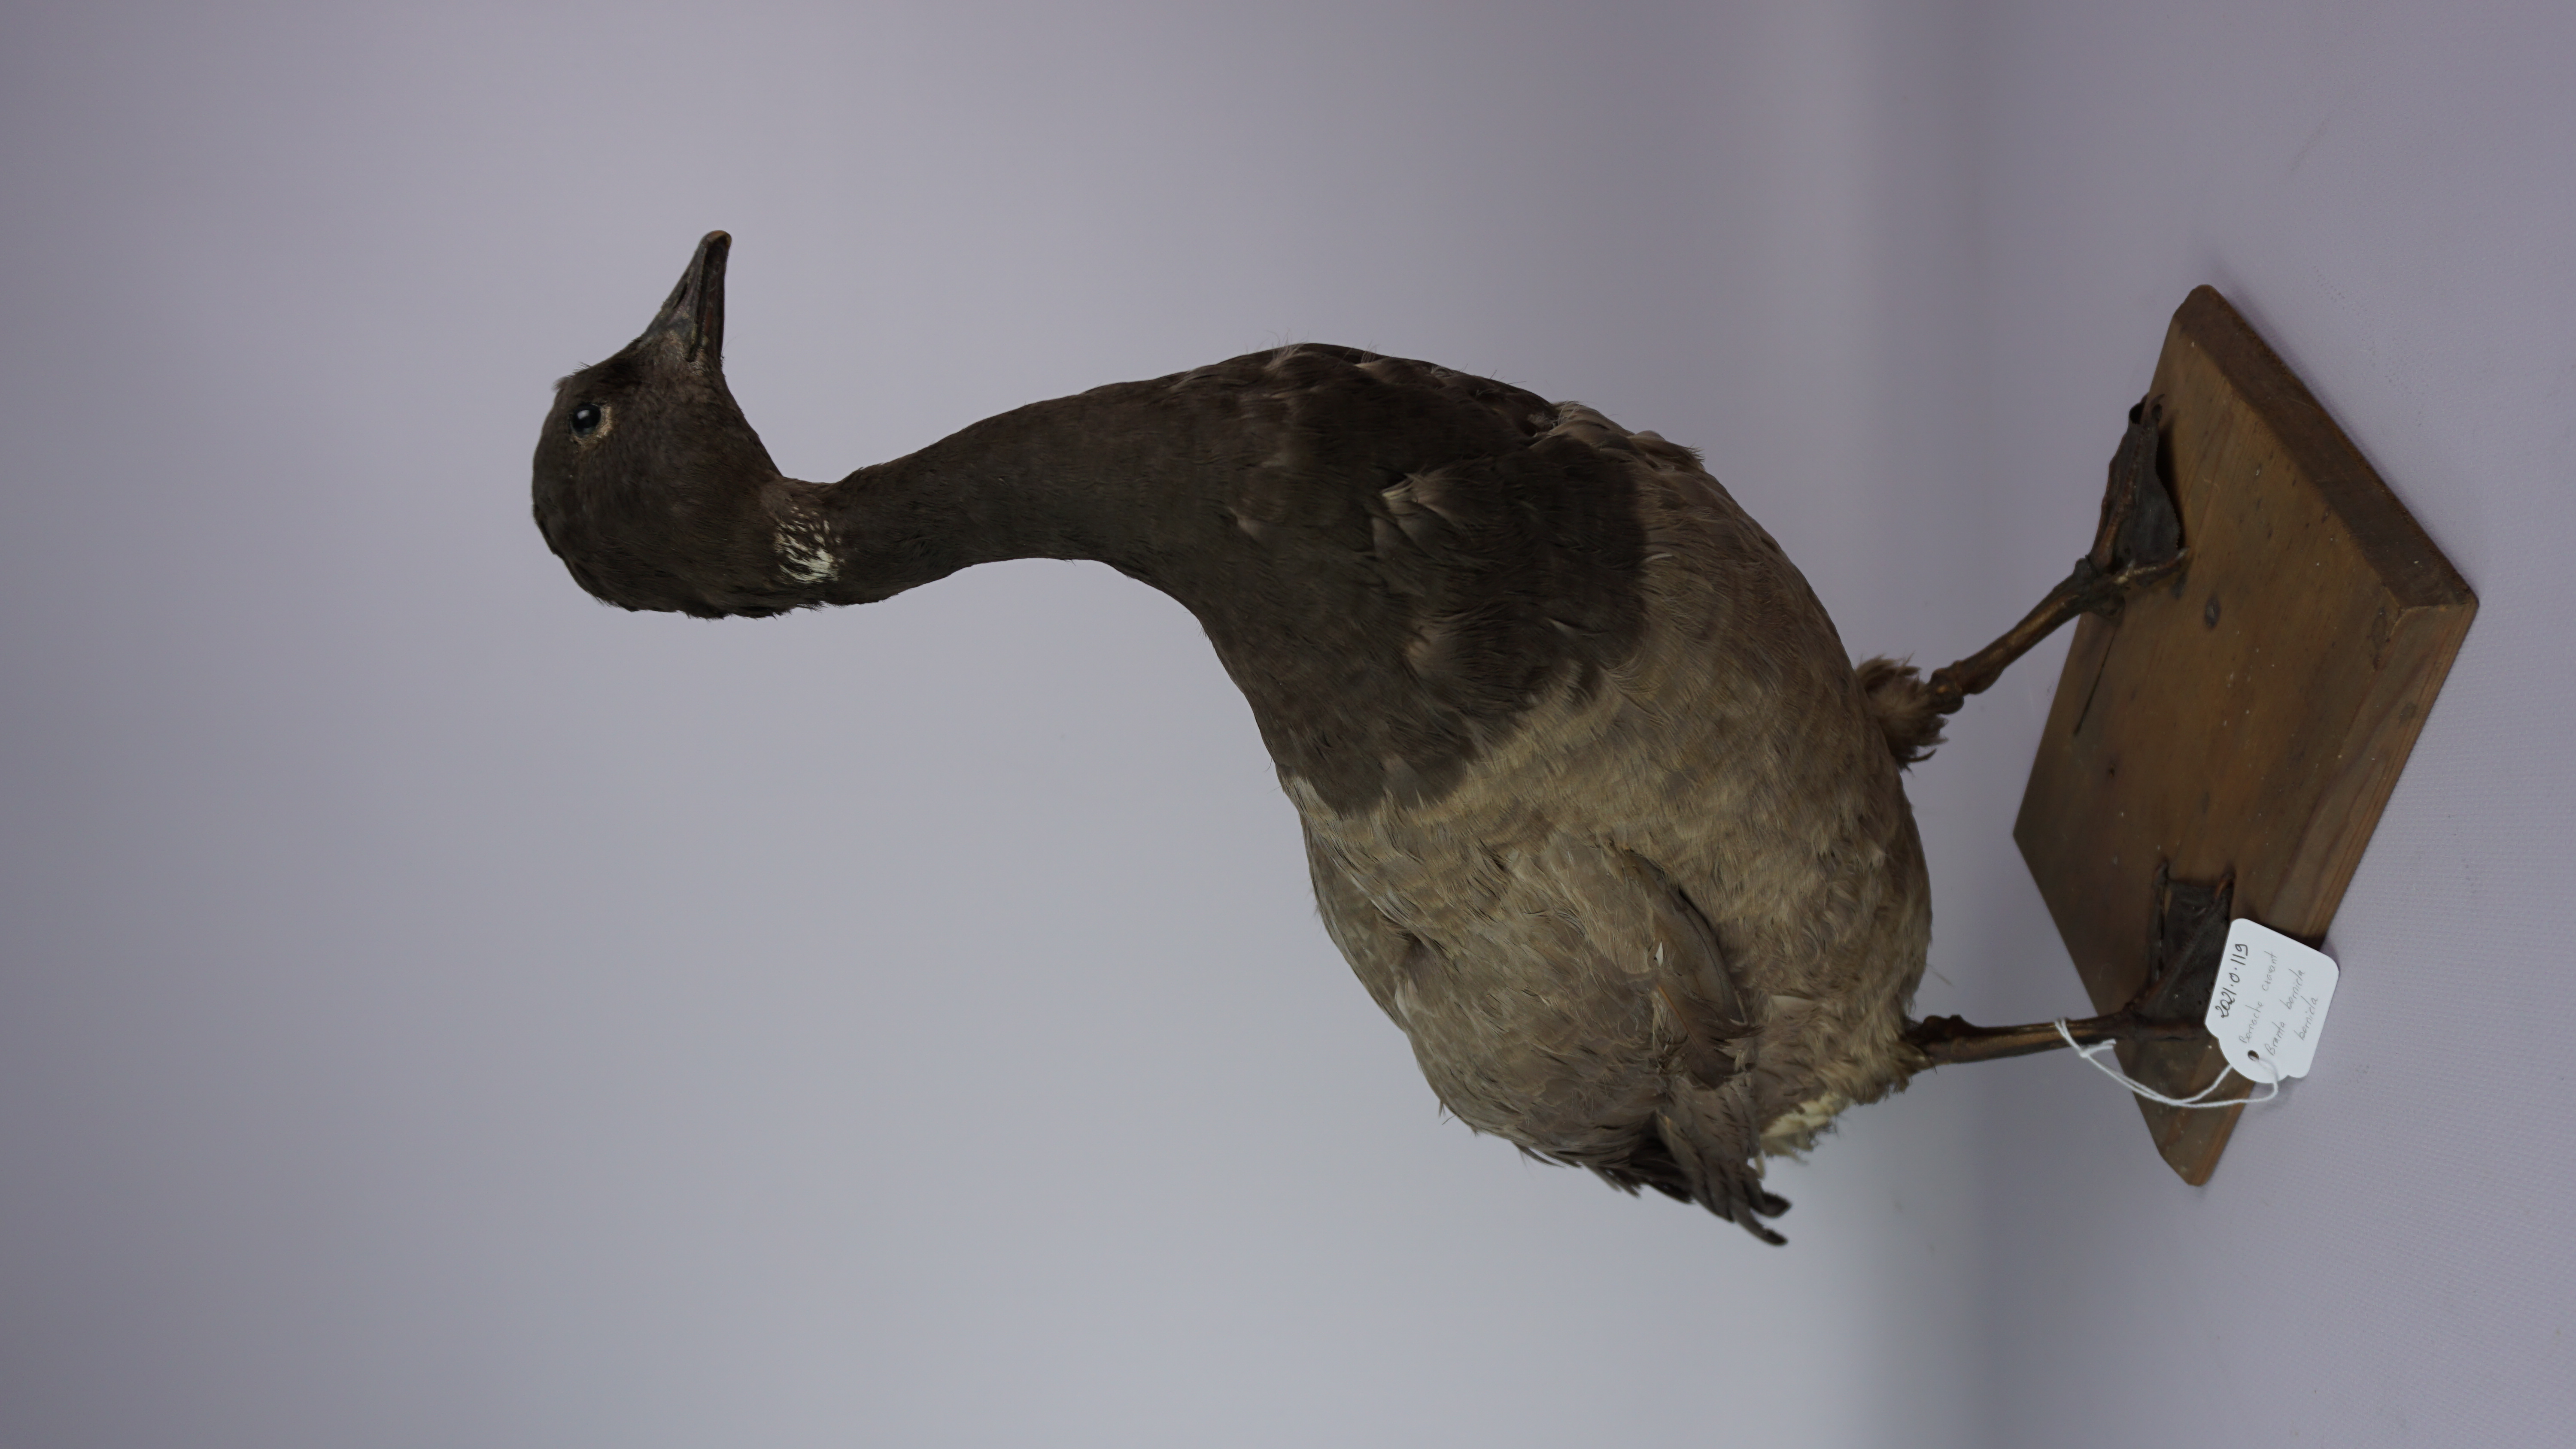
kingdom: Animalia
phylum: Chordata
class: Aves
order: Anseriformes
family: Anatidae
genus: Branta
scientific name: Branta bernicla
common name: Brant goose
